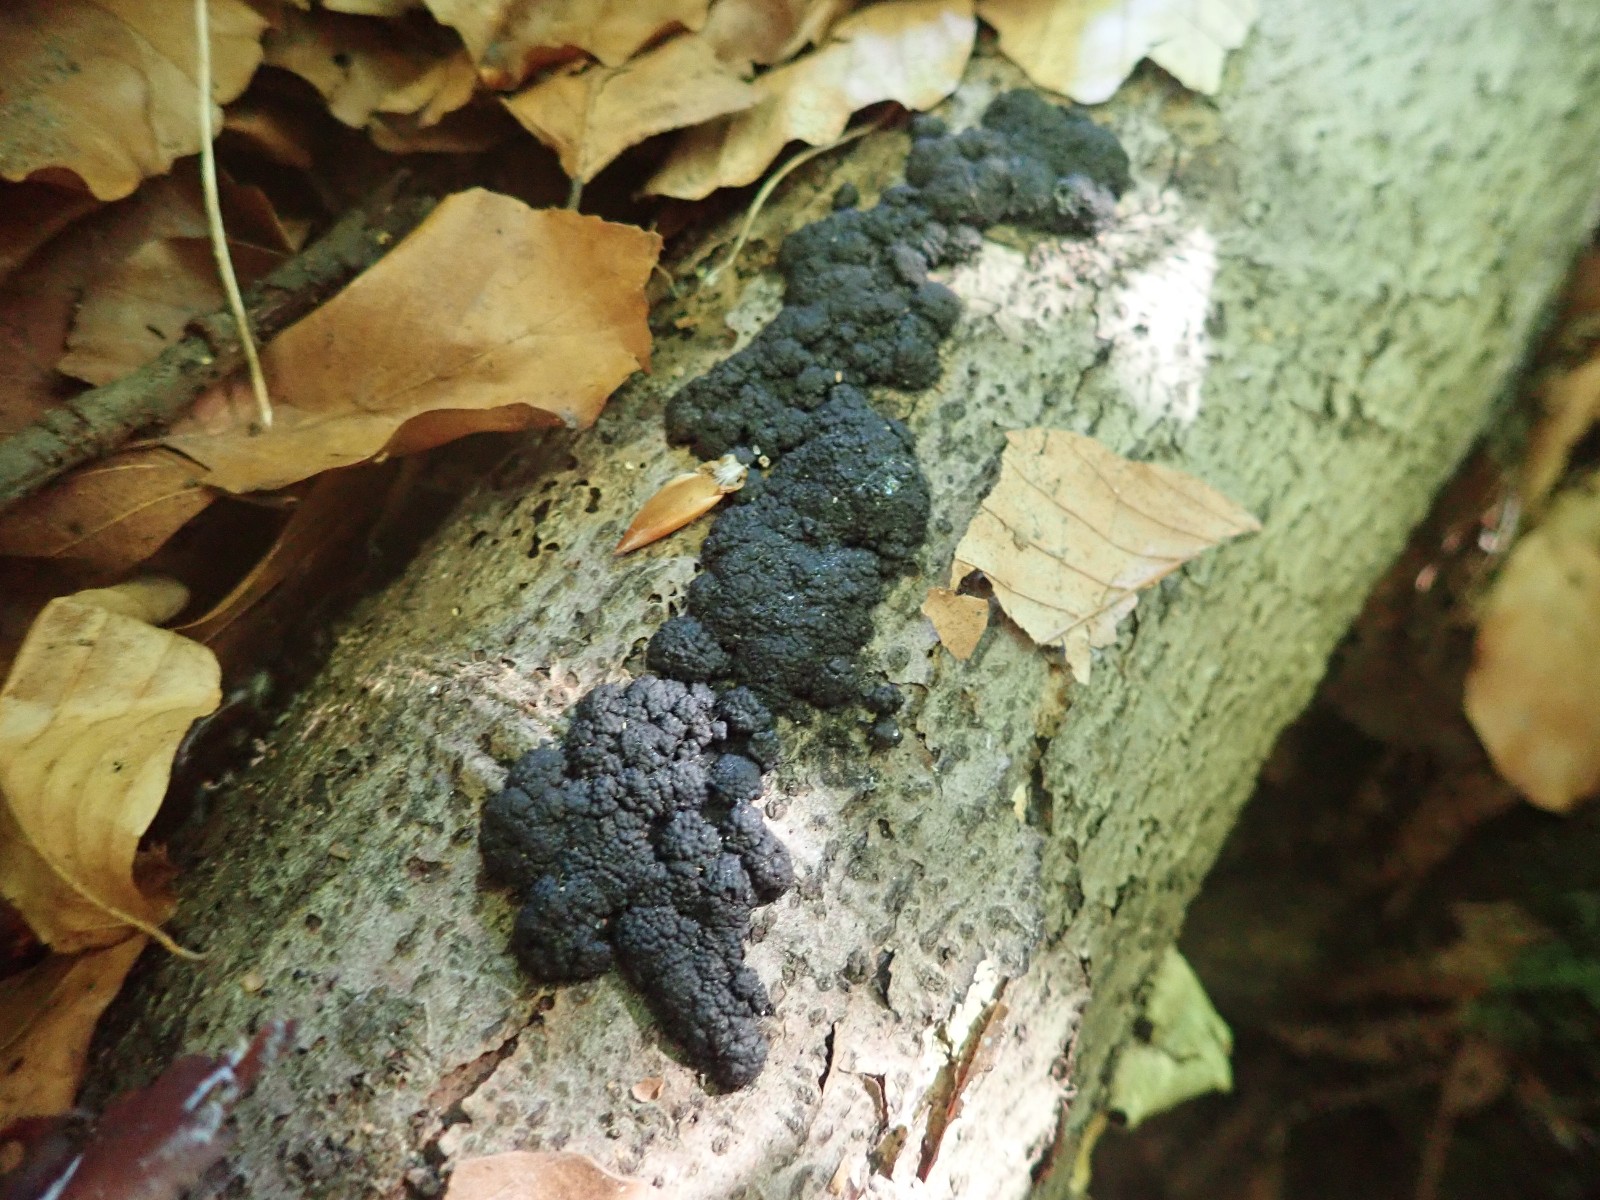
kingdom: Fungi
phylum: Ascomycota
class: Sordariomycetes
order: Xylariales
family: Hypoxylaceae
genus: Jackrogersella
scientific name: Jackrogersella cohaerens
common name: sammenflydende kulbær
